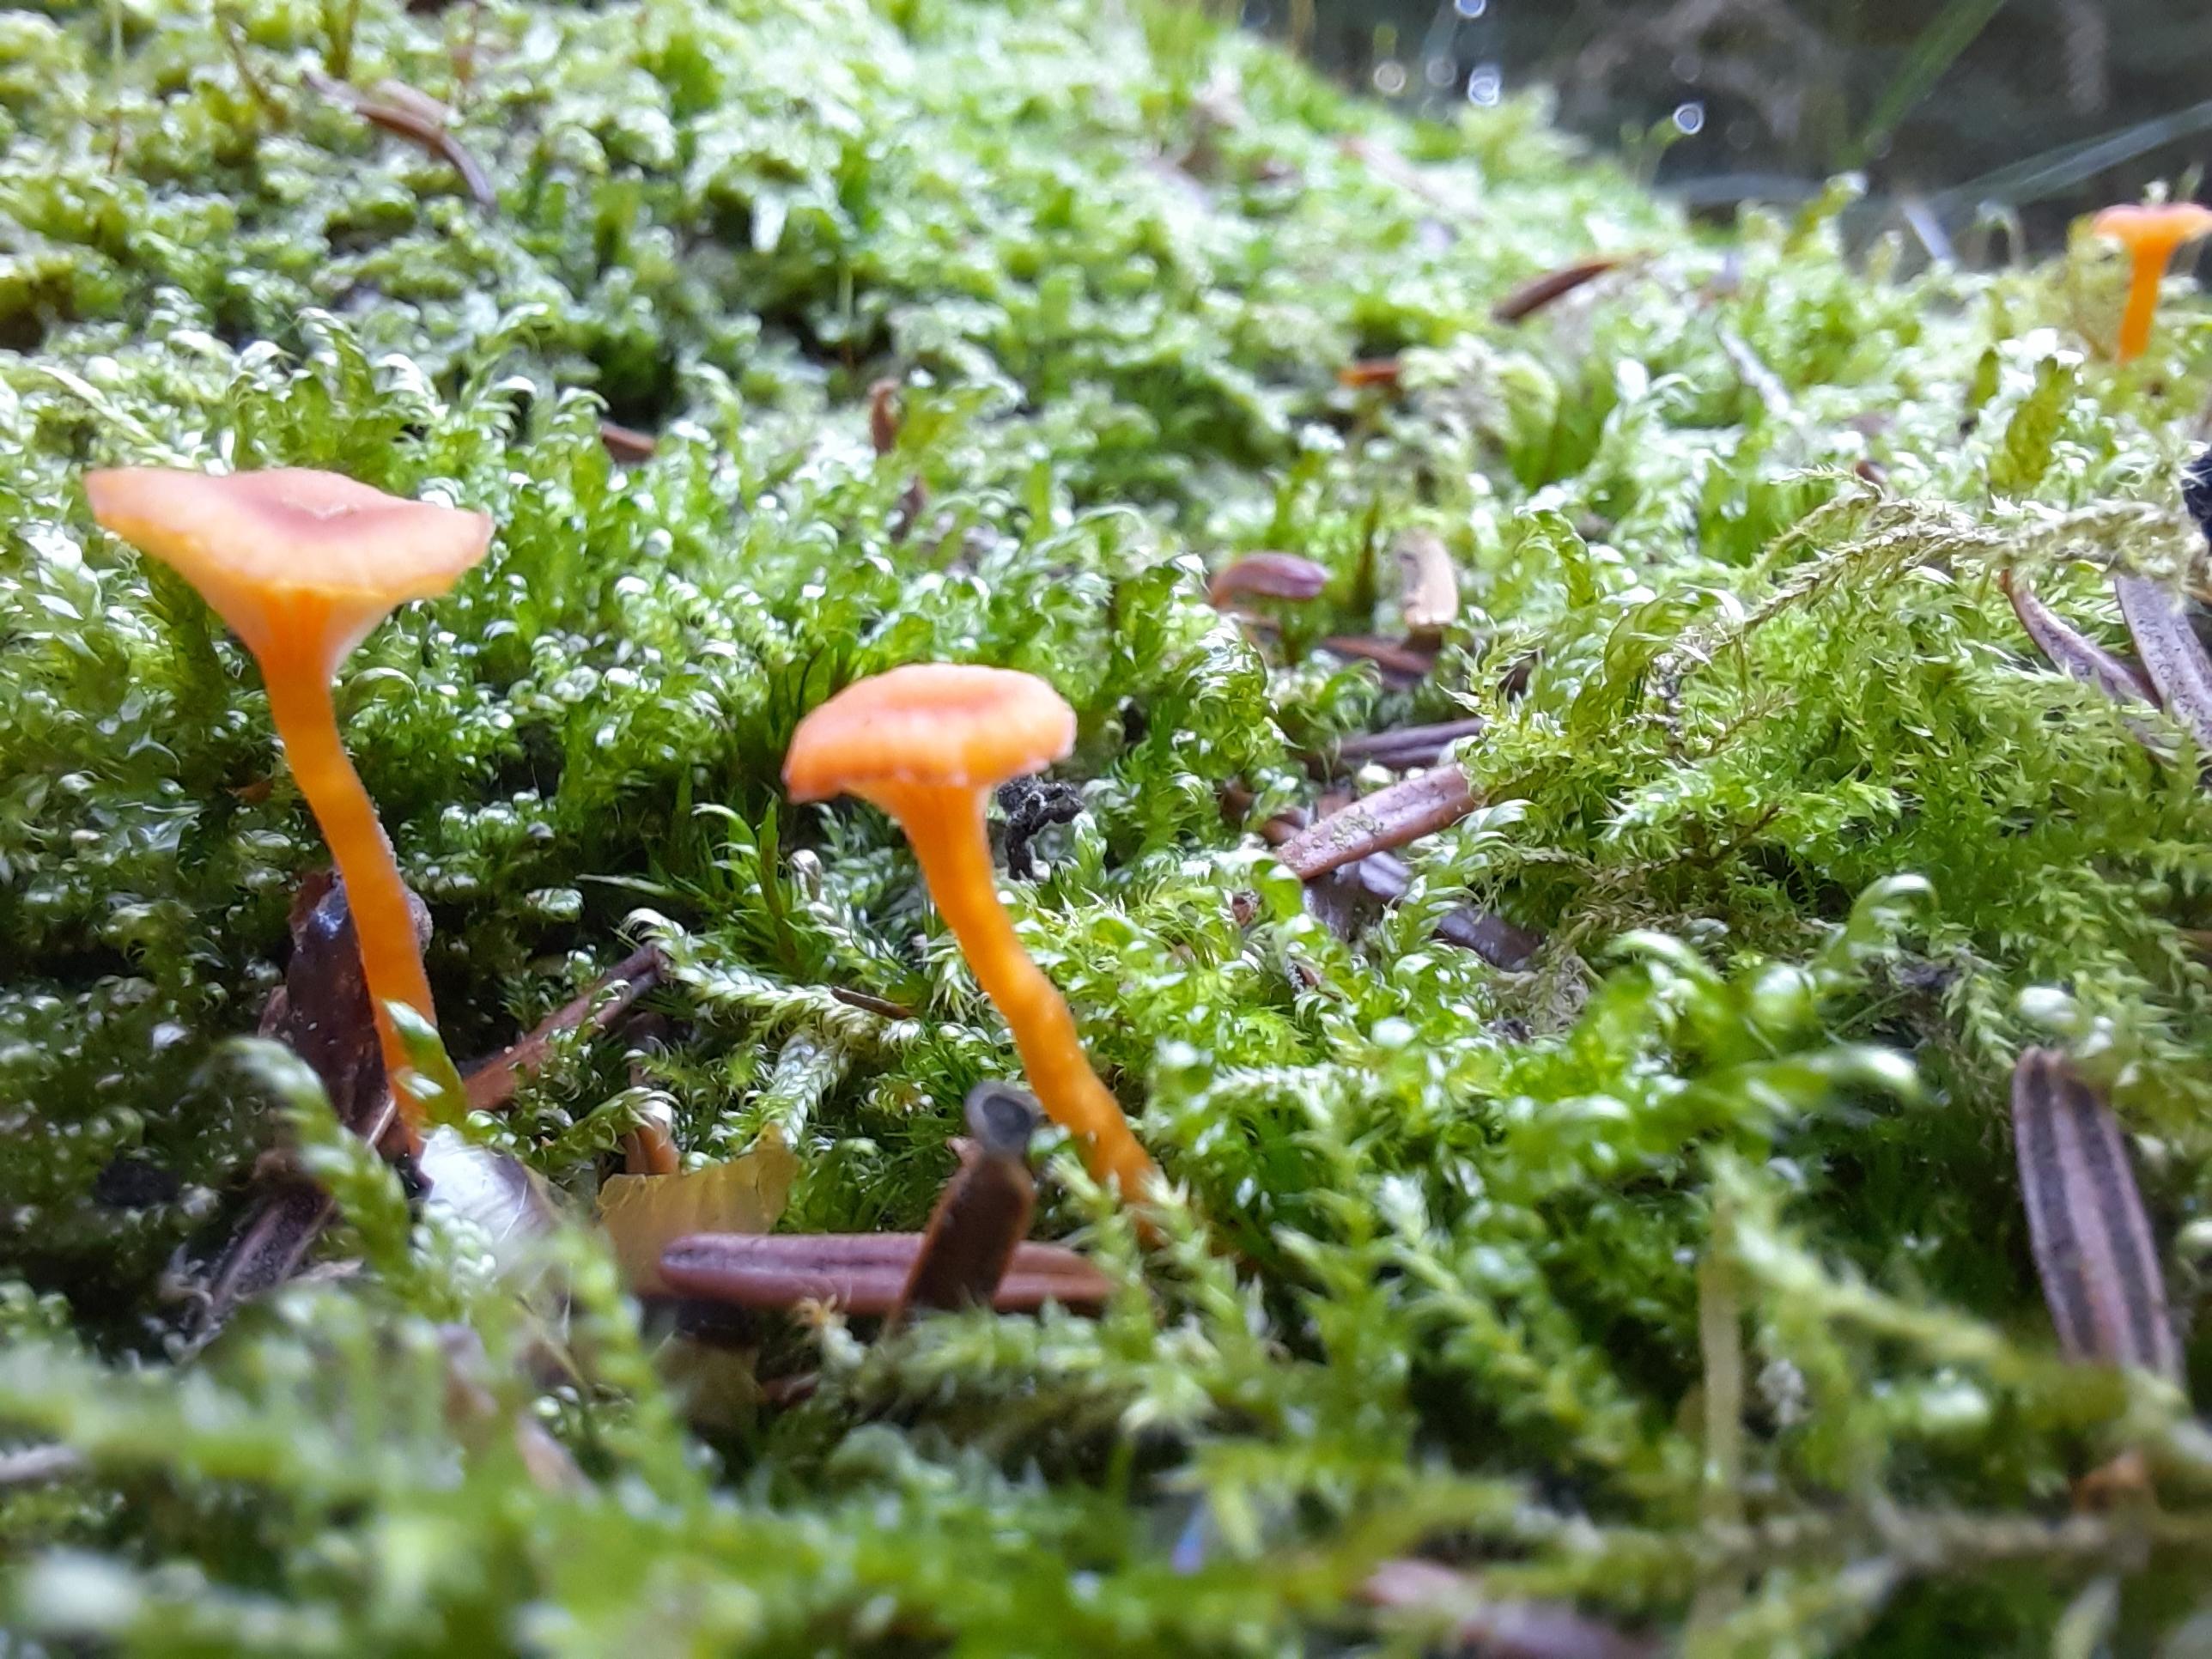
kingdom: Fungi
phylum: Basidiomycota
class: Agaricomycetes
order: Hymenochaetales
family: Rickenellaceae
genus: Rickenella
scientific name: Rickenella fibula
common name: orange mosnavlehat
